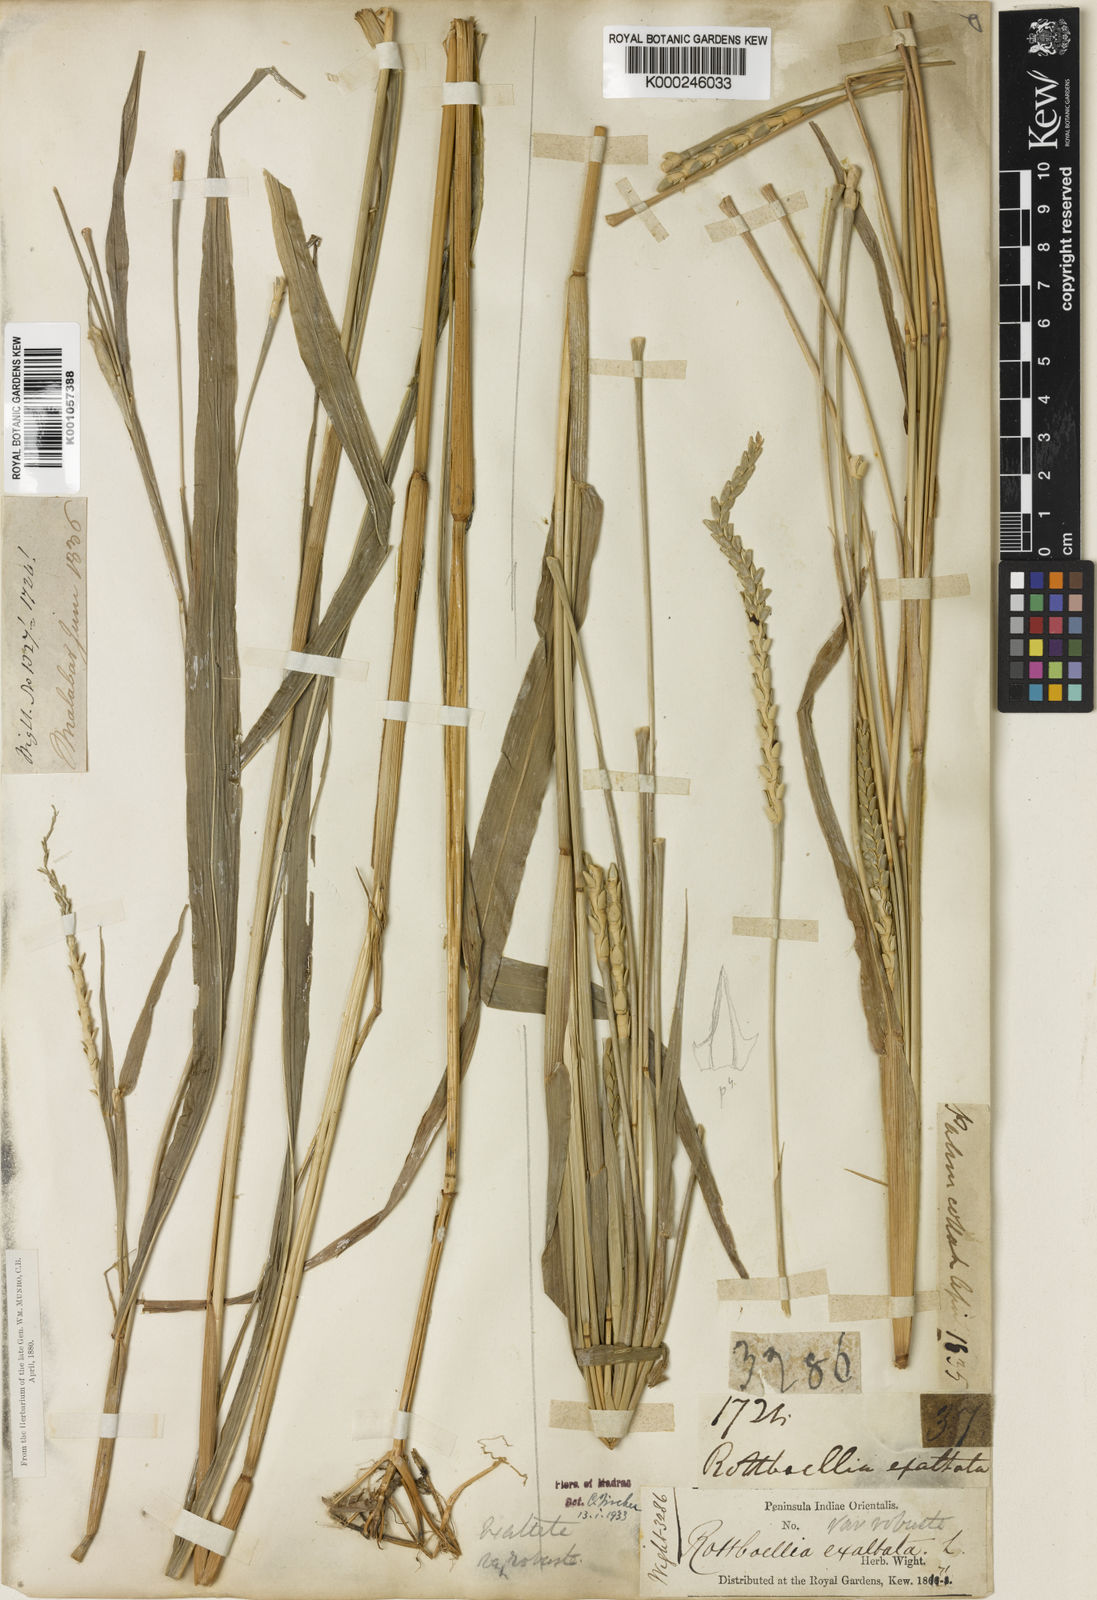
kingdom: Plantae
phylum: Tracheophyta
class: Liliopsida
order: Poales
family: Poaceae
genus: Rottboellia
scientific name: Rottboellia cochinchinensis
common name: Itchgrass
